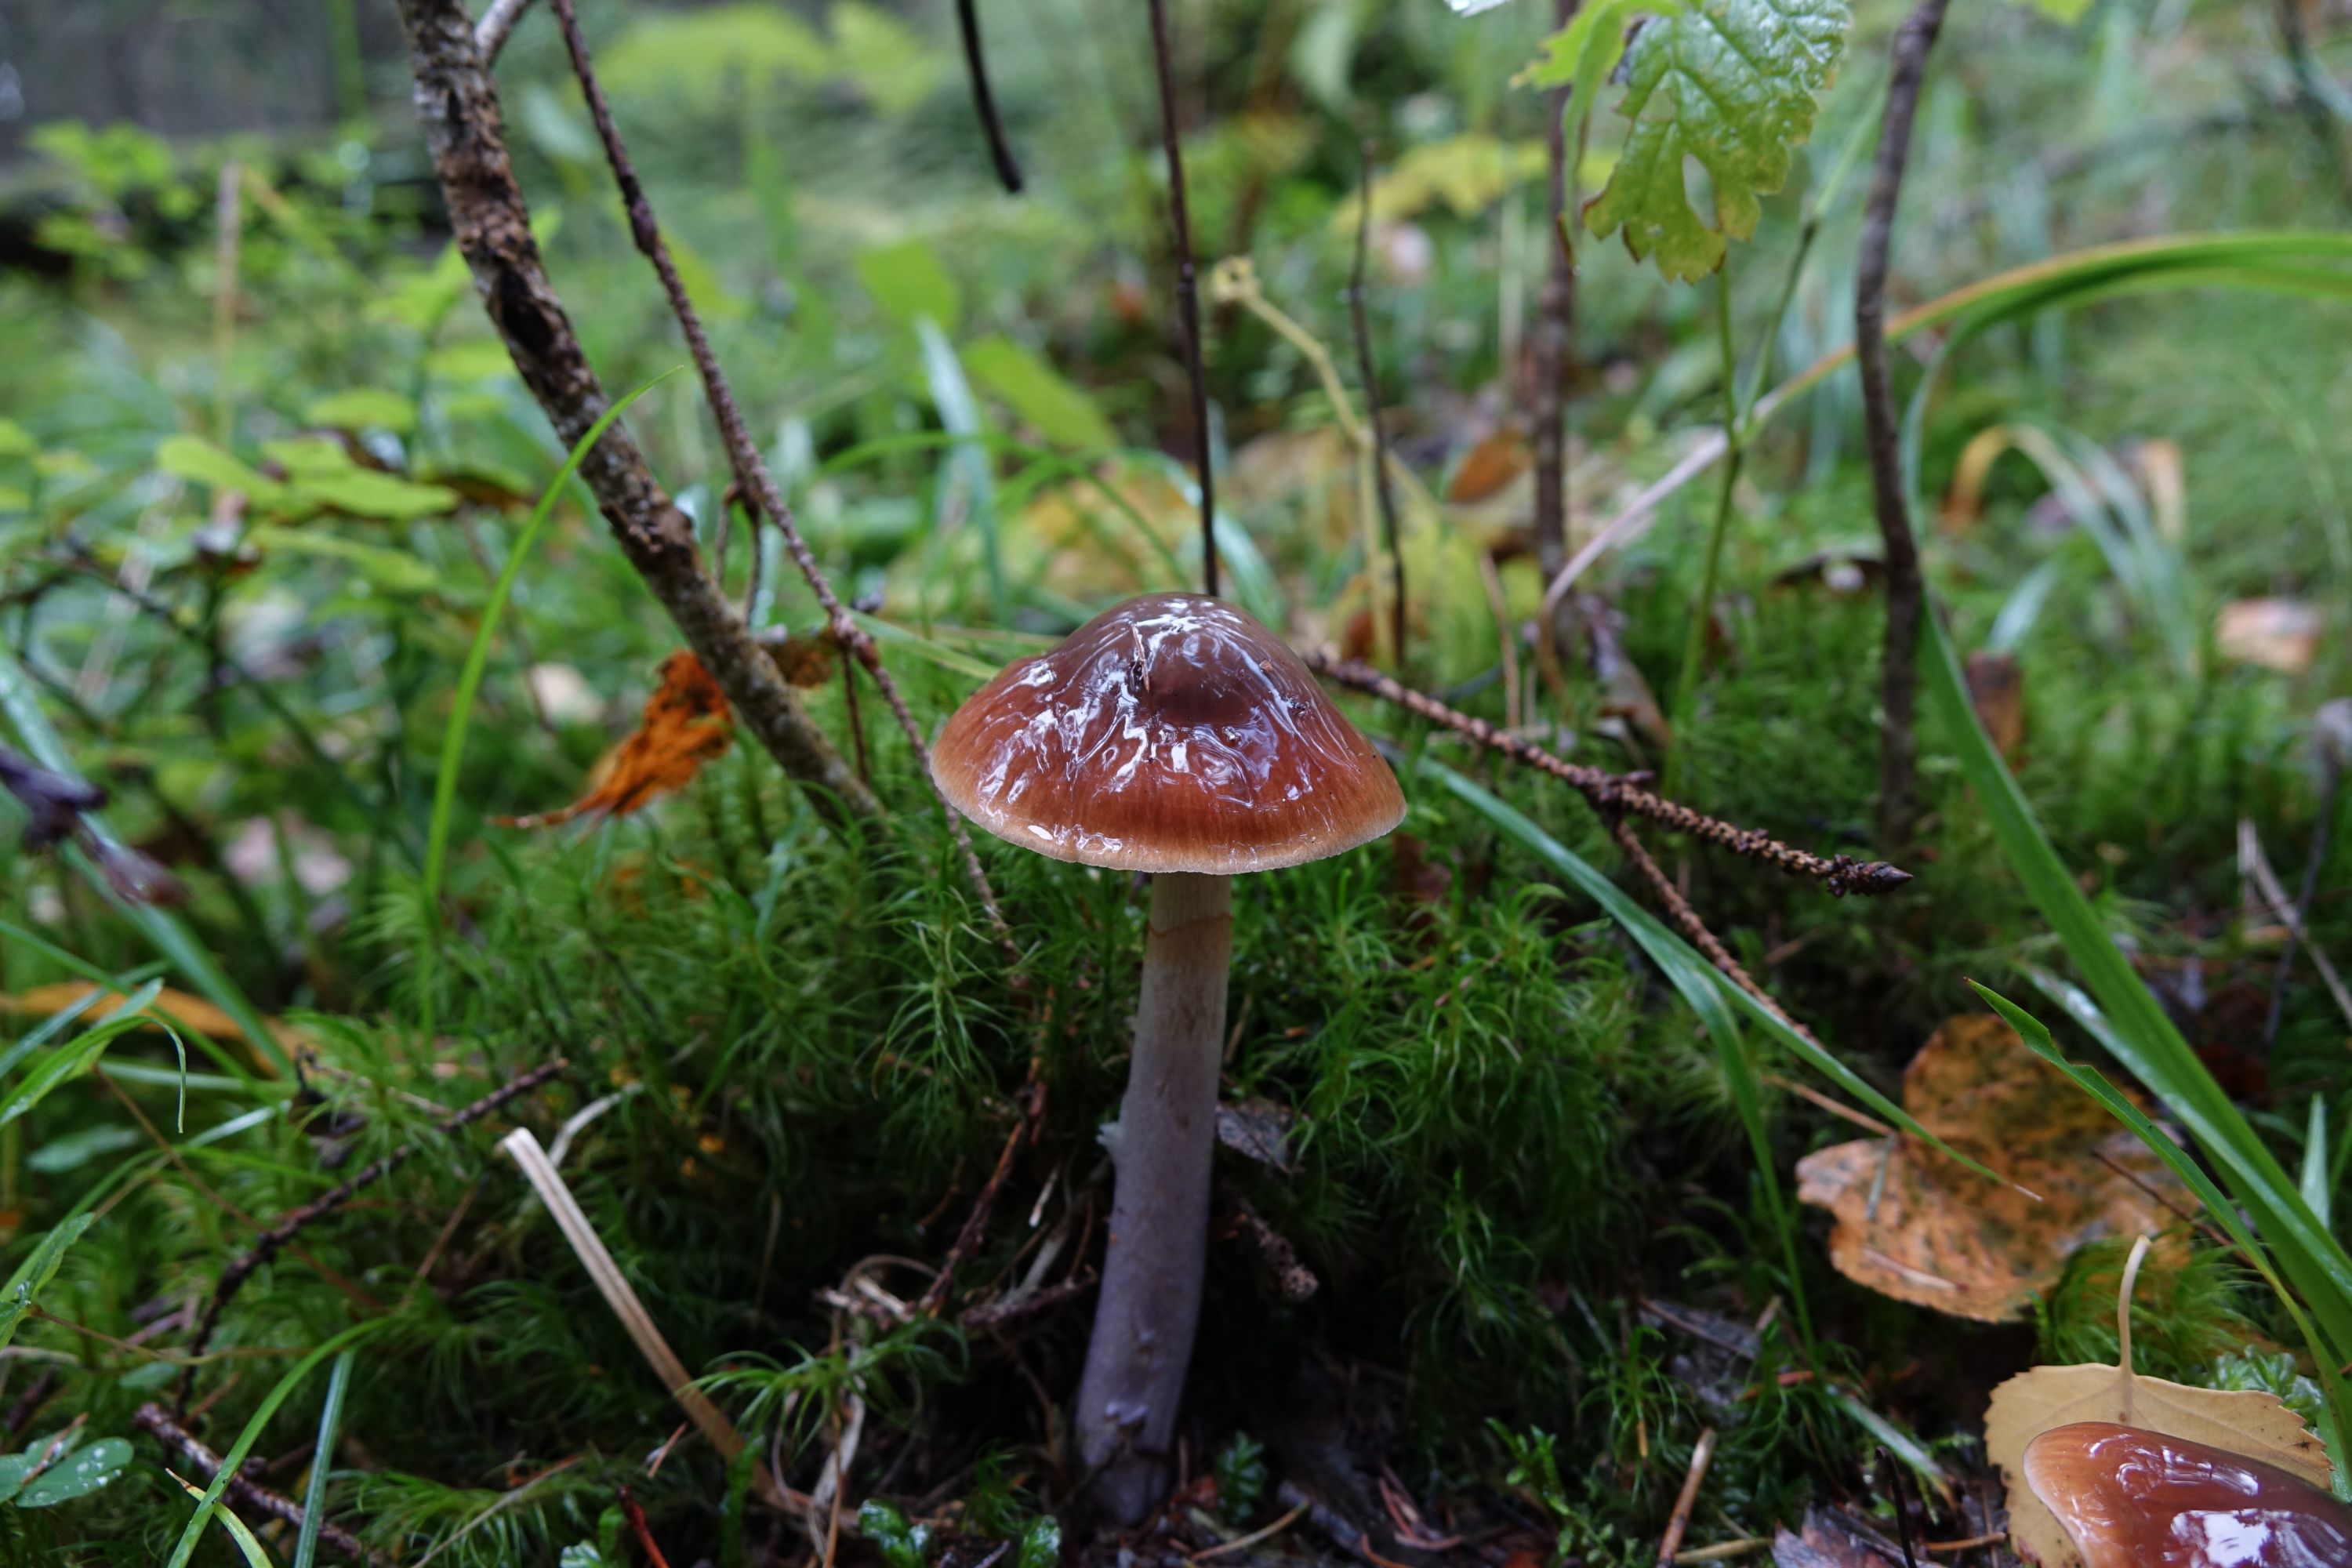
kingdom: Fungi
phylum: Basidiomycota
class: Agaricomycetes
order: Agaricales
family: Cortinariaceae
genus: Cortinarius
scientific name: Cortinarius stillatitius
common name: Purple stocking webcap
